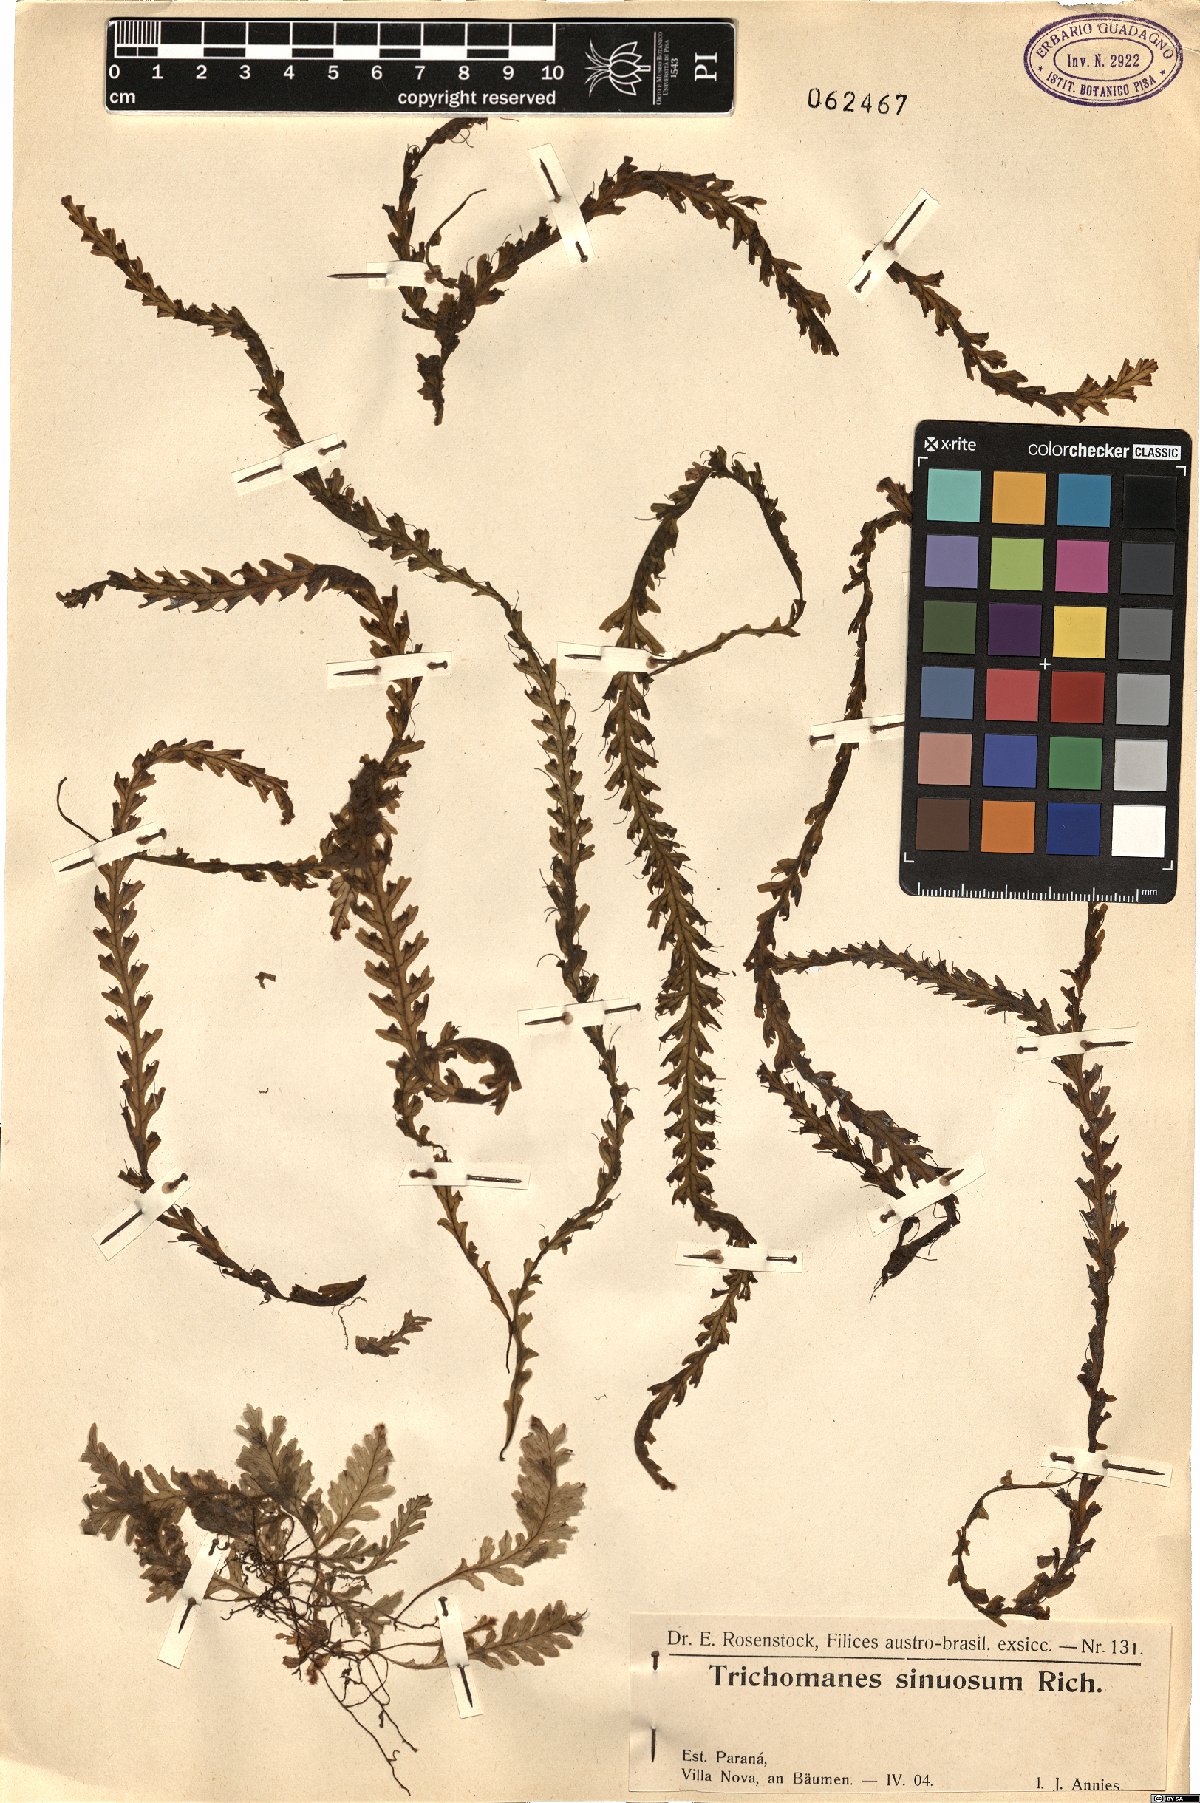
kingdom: Plantae
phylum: Tracheophyta
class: Polypodiopsida
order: Hymenophyllales
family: Hymenophyllaceae
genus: Trichomanes
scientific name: Trichomanes polypodioides
